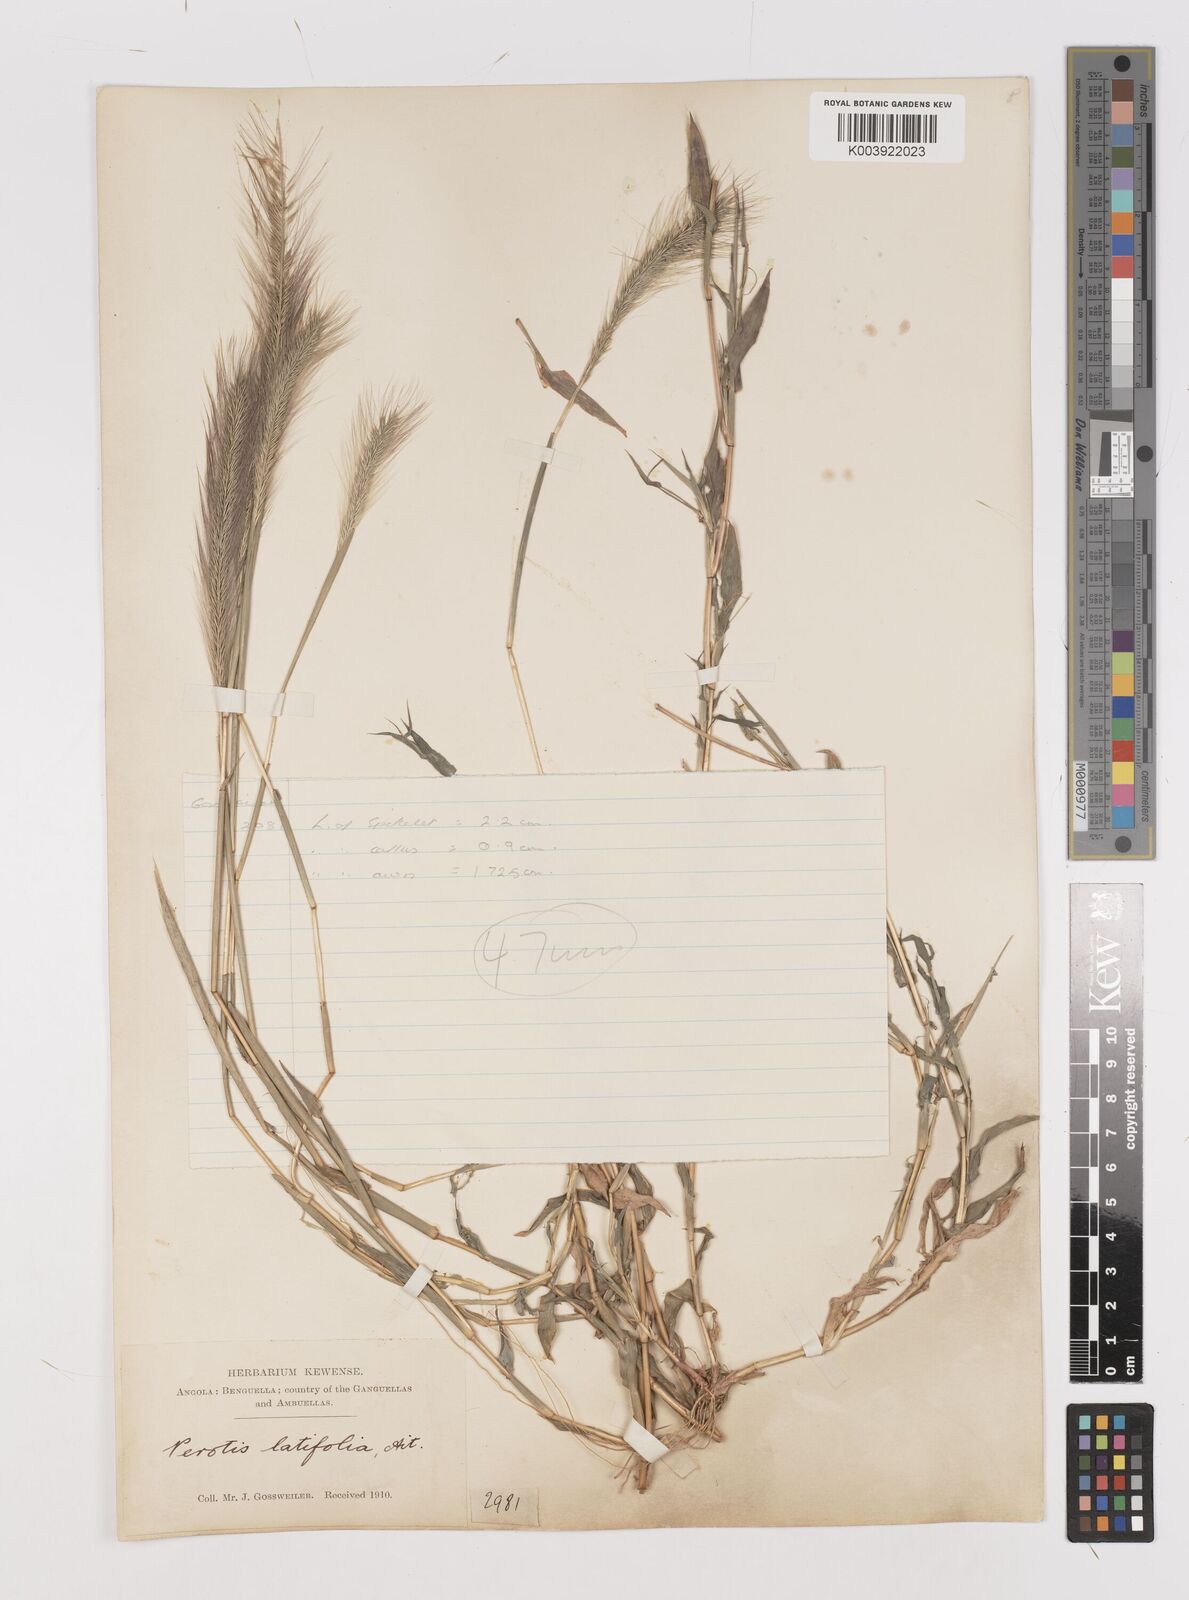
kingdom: Plantae
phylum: Tracheophyta
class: Liliopsida
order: Poales
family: Poaceae
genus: Perotis
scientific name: Perotis vaginata
